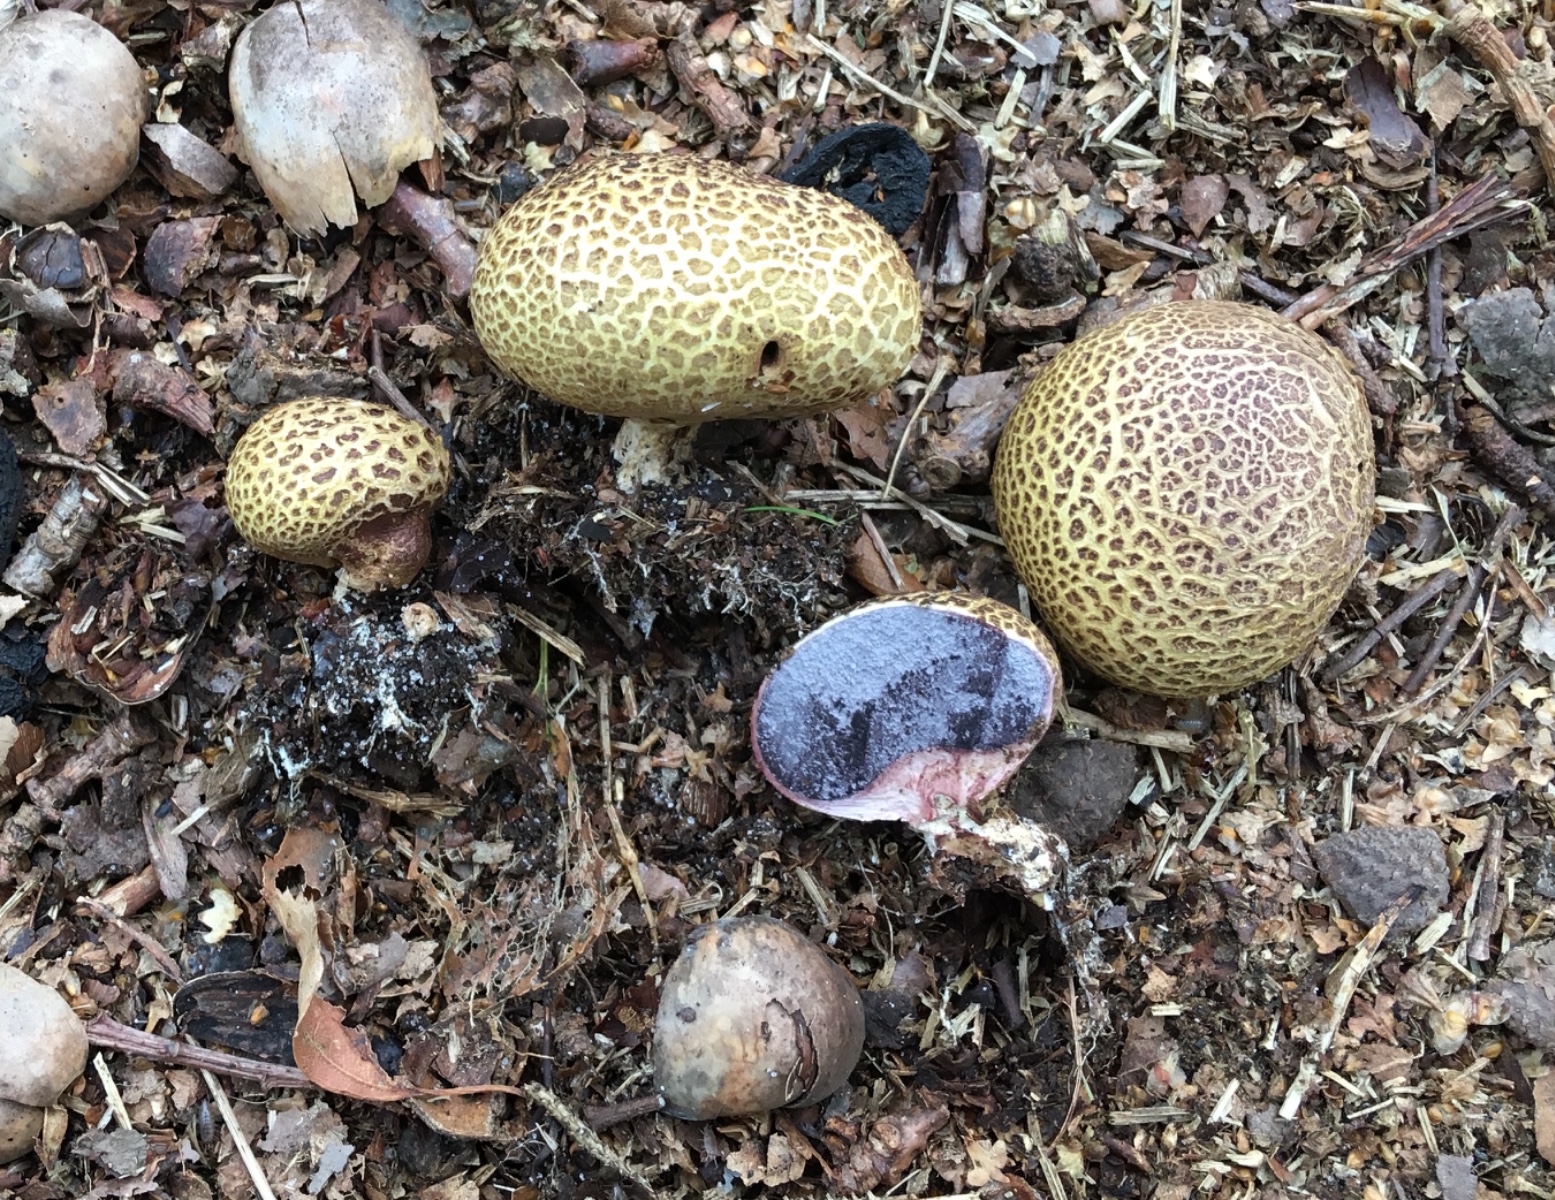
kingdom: Fungi
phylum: Basidiomycota
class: Agaricomycetes
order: Boletales
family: Sclerodermataceae
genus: Scleroderma
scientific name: Scleroderma areolatum
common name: plettet bruskbold
